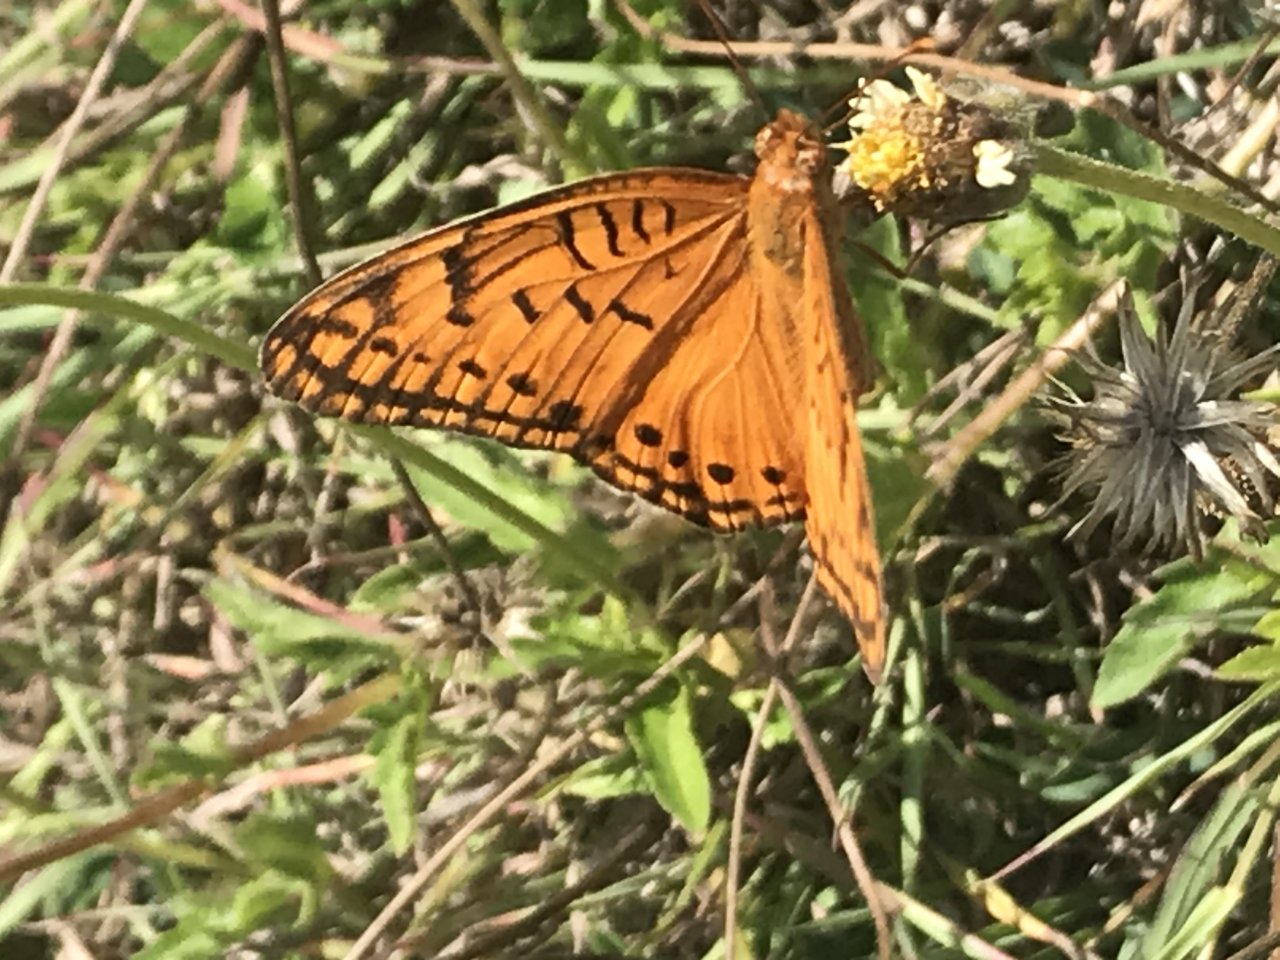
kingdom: Animalia
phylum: Arthropoda
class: Insecta
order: Lepidoptera
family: Nymphalidae
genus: Euptoieta
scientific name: Euptoieta hegesia
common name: Mexican Fritillary
